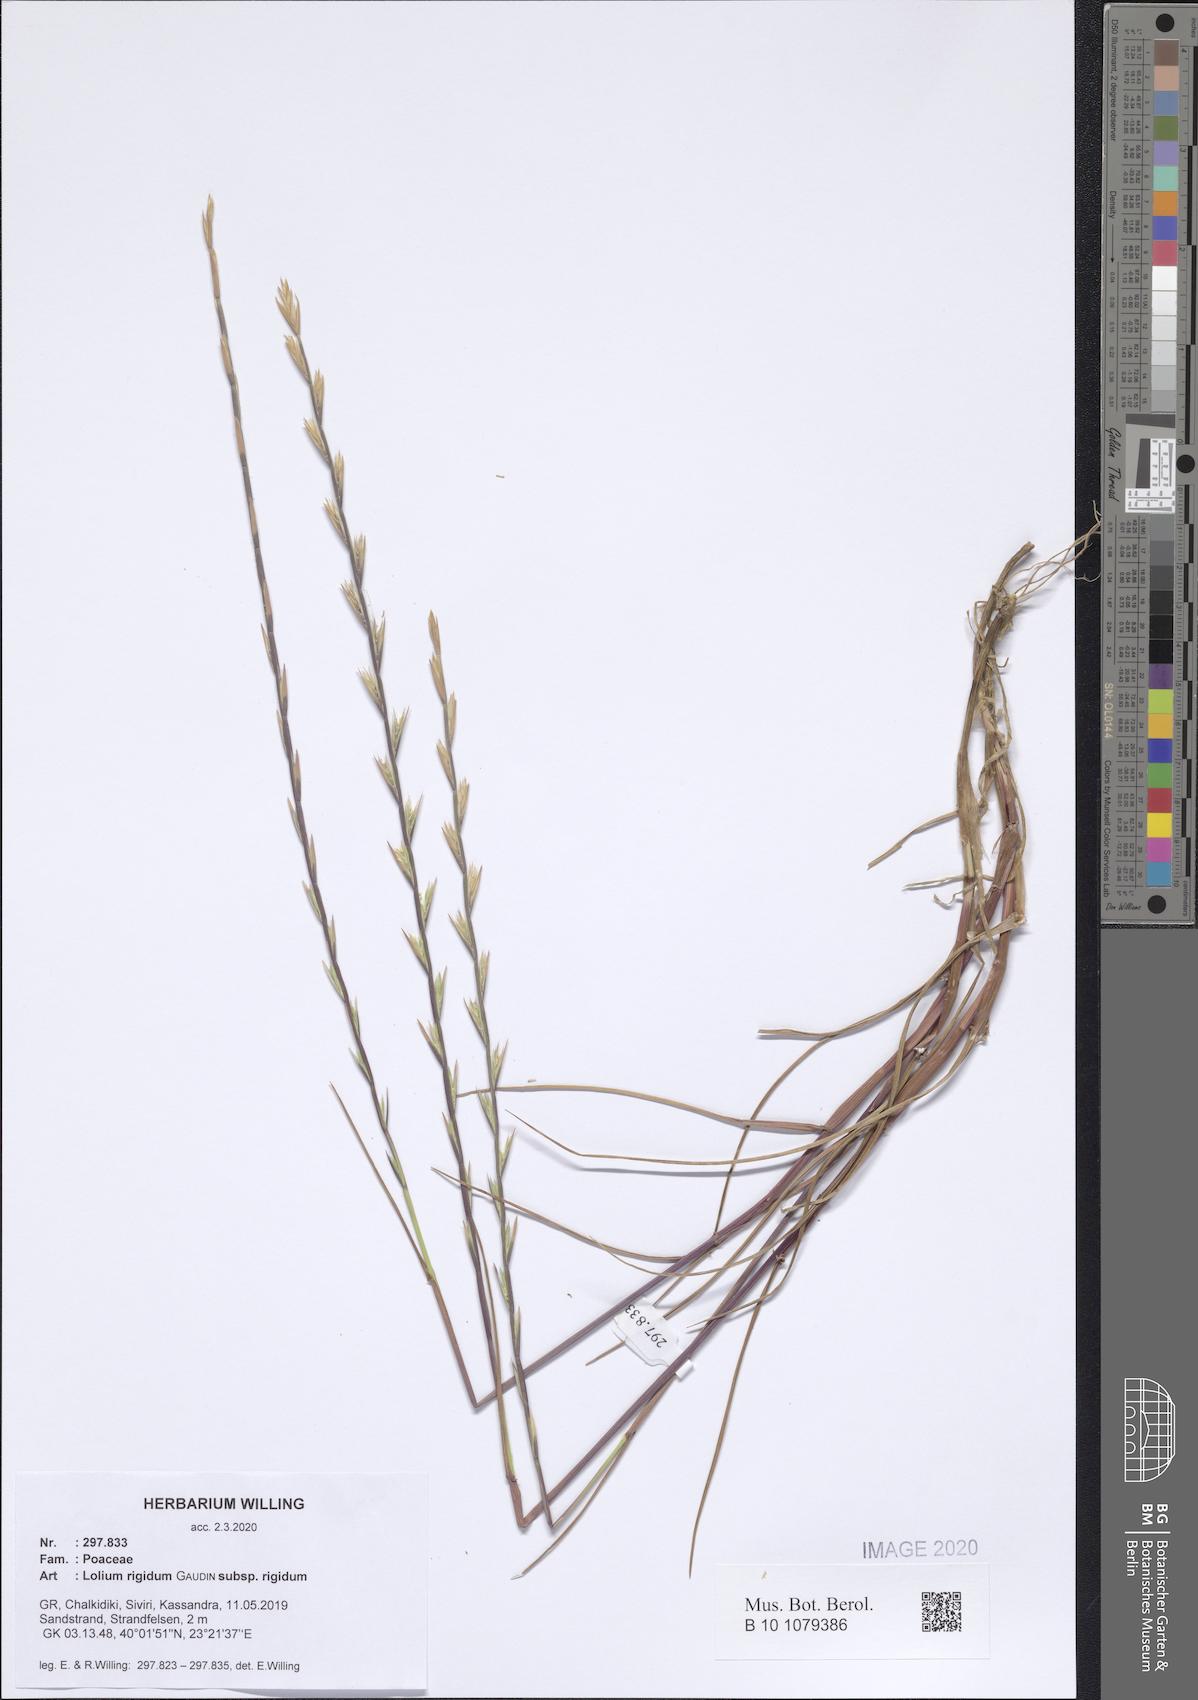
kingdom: Plantae
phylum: Tracheophyta
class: Liliopsida
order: Poales
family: Poaceae
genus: Lolium
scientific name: Lolium rigidum
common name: Wimmera ryegrass
